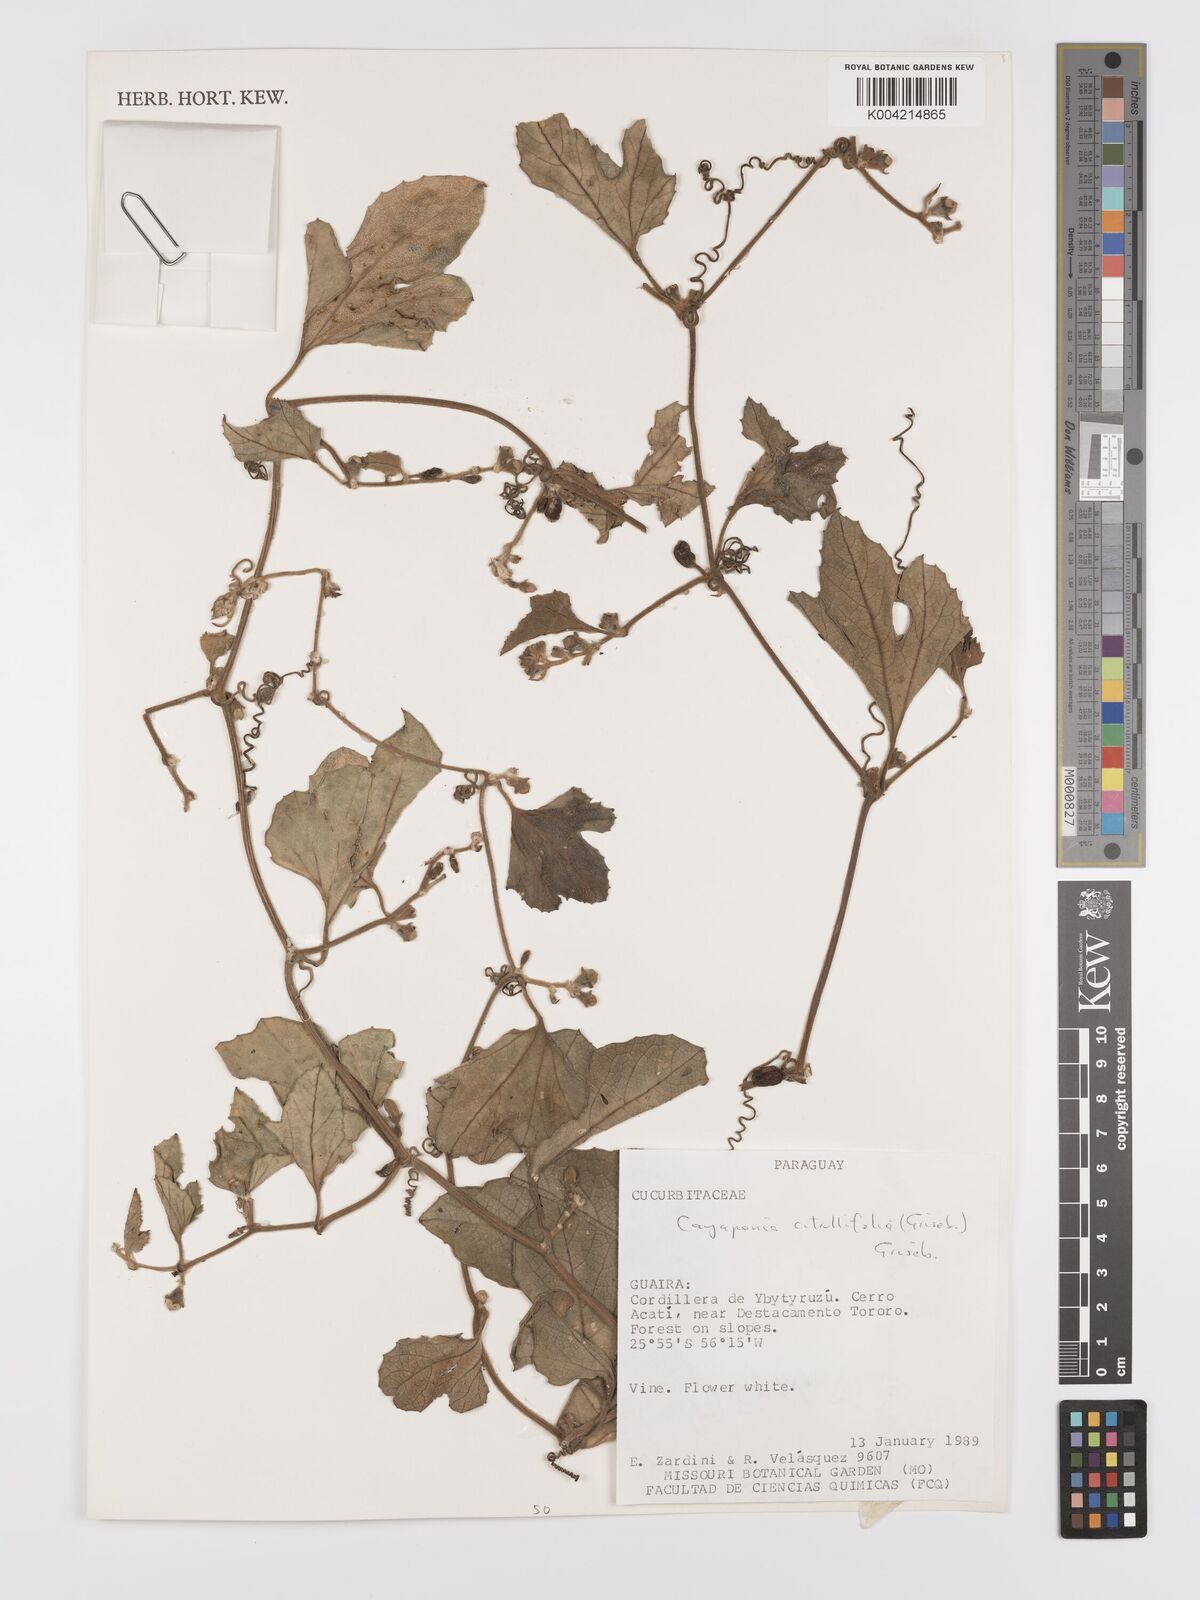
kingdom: Plantae
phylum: Tracheophyta
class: Magnoliopsida
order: Cucurbitales
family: Cucurbitaceae
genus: Cayaponia
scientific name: Cayaponia citrullifolia
